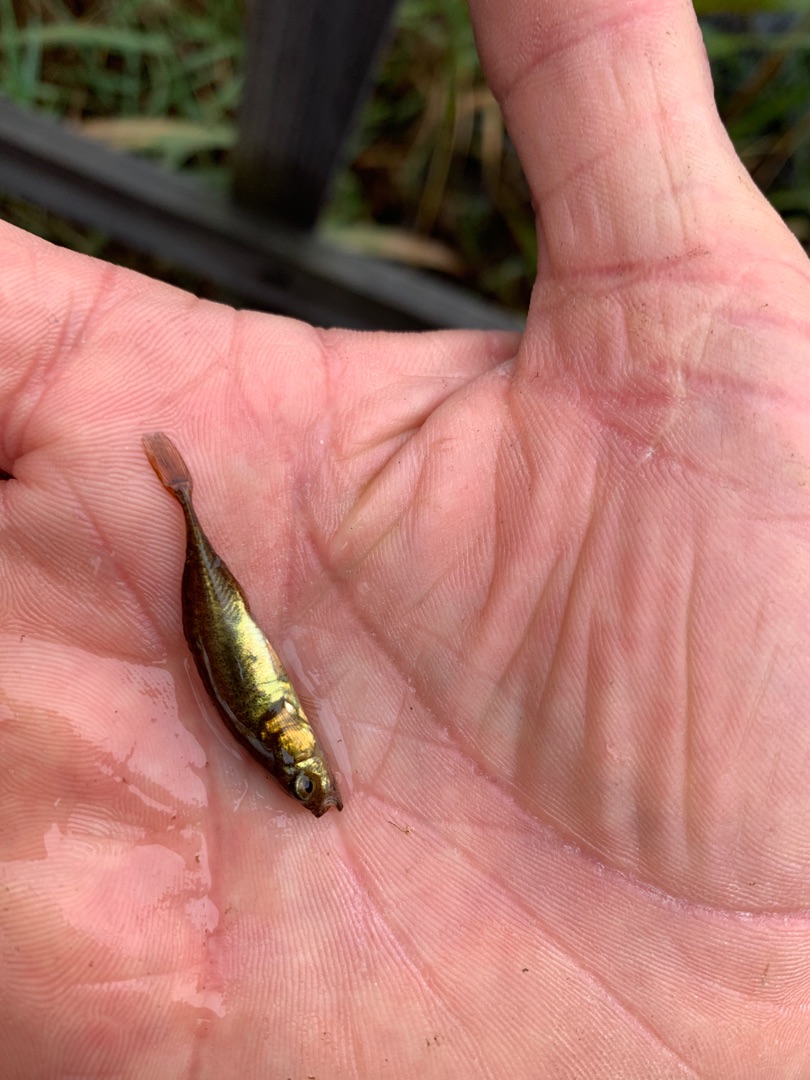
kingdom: Animalia
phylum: Chordata
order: Gasterosteiformes
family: Gasterosteidae
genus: Pungitius
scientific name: Pungitius pungitius
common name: Nipigget hundestejle
